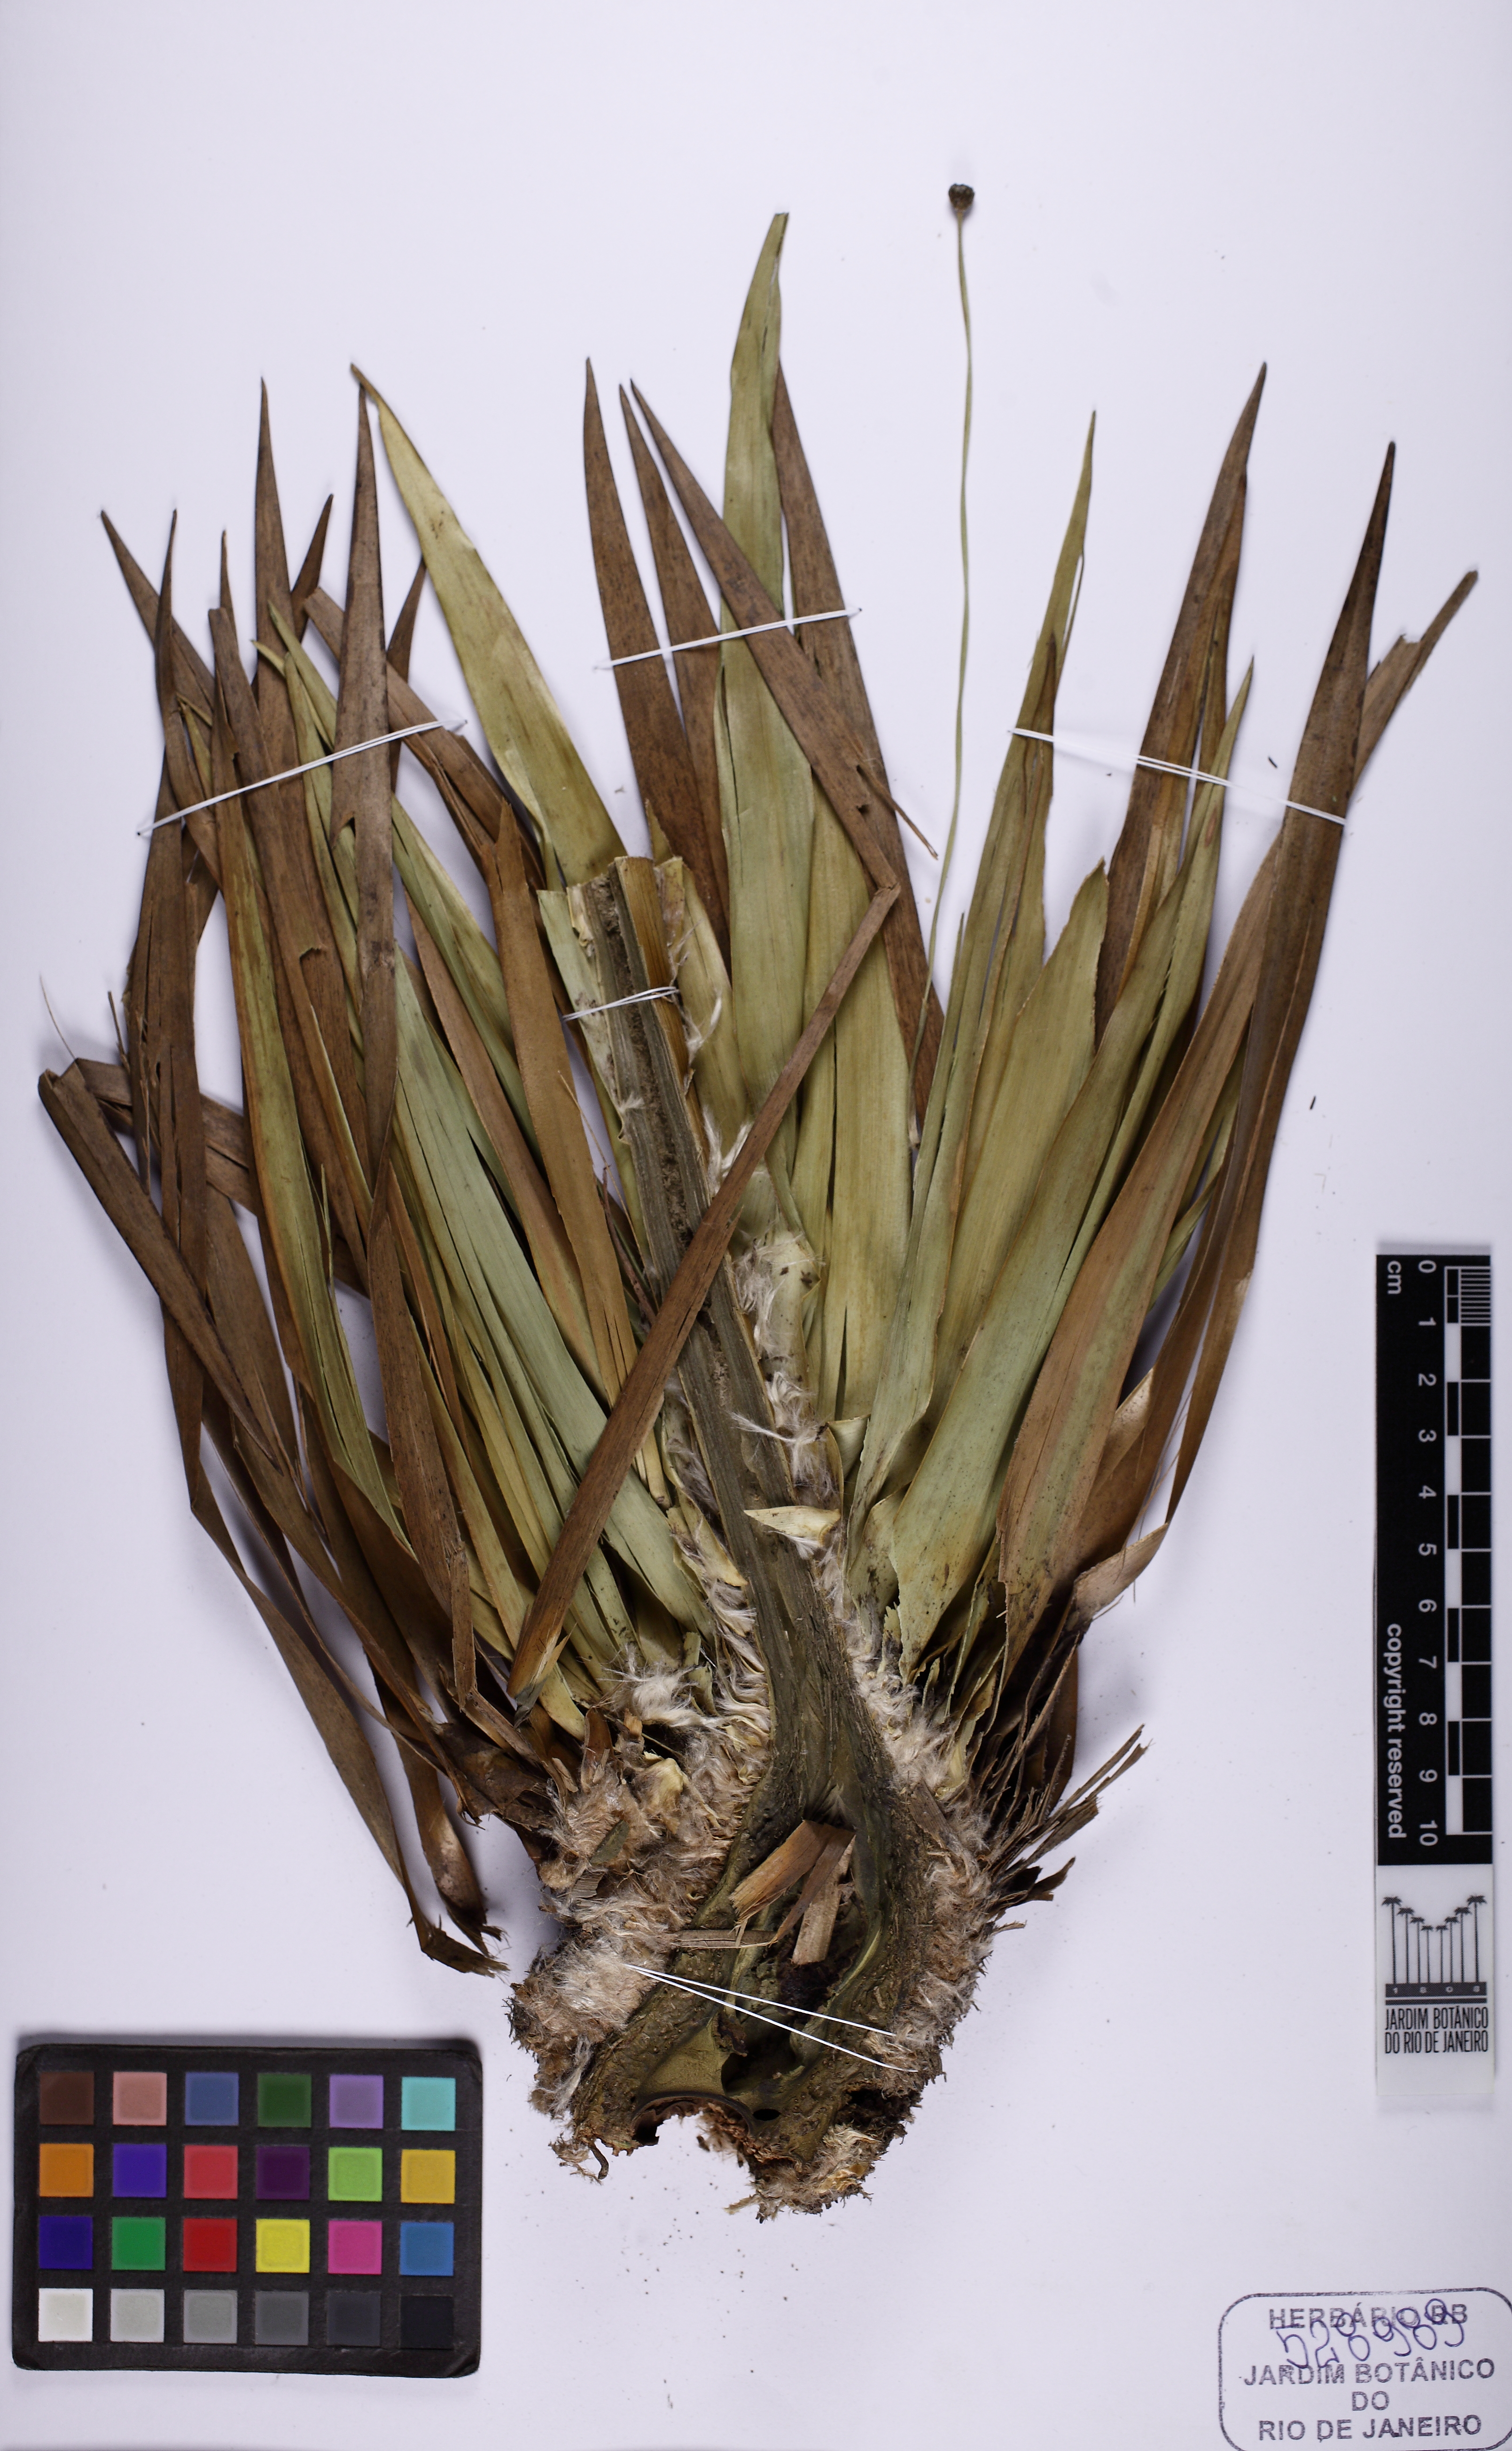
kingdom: Plantae
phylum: Tracheophyta
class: Liliopsida
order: Poales
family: Eriocaulaceae
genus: Paepalanthus
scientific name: Paepalanthus chiquitensis
